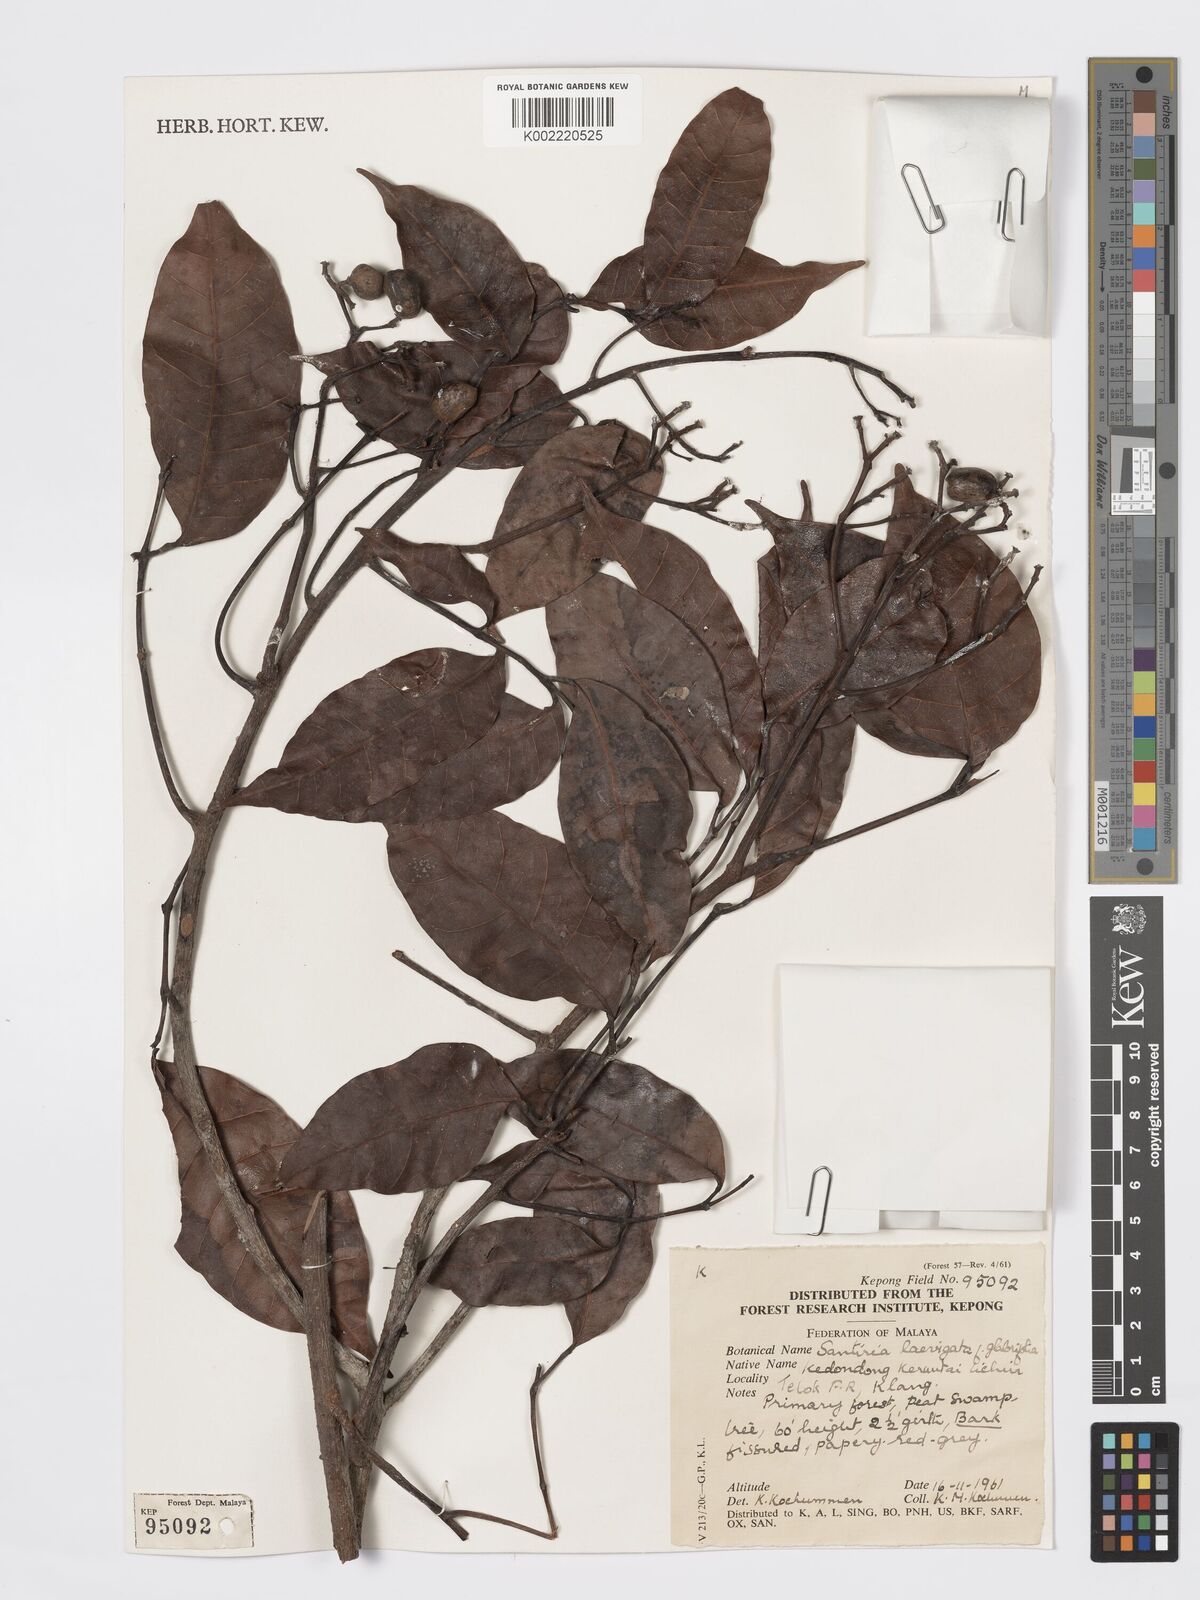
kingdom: Plantae
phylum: Tracheophyta
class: Magnoliopsida
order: Sapindales
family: Burseraceae
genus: Santiria
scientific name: Santiria laevigata
